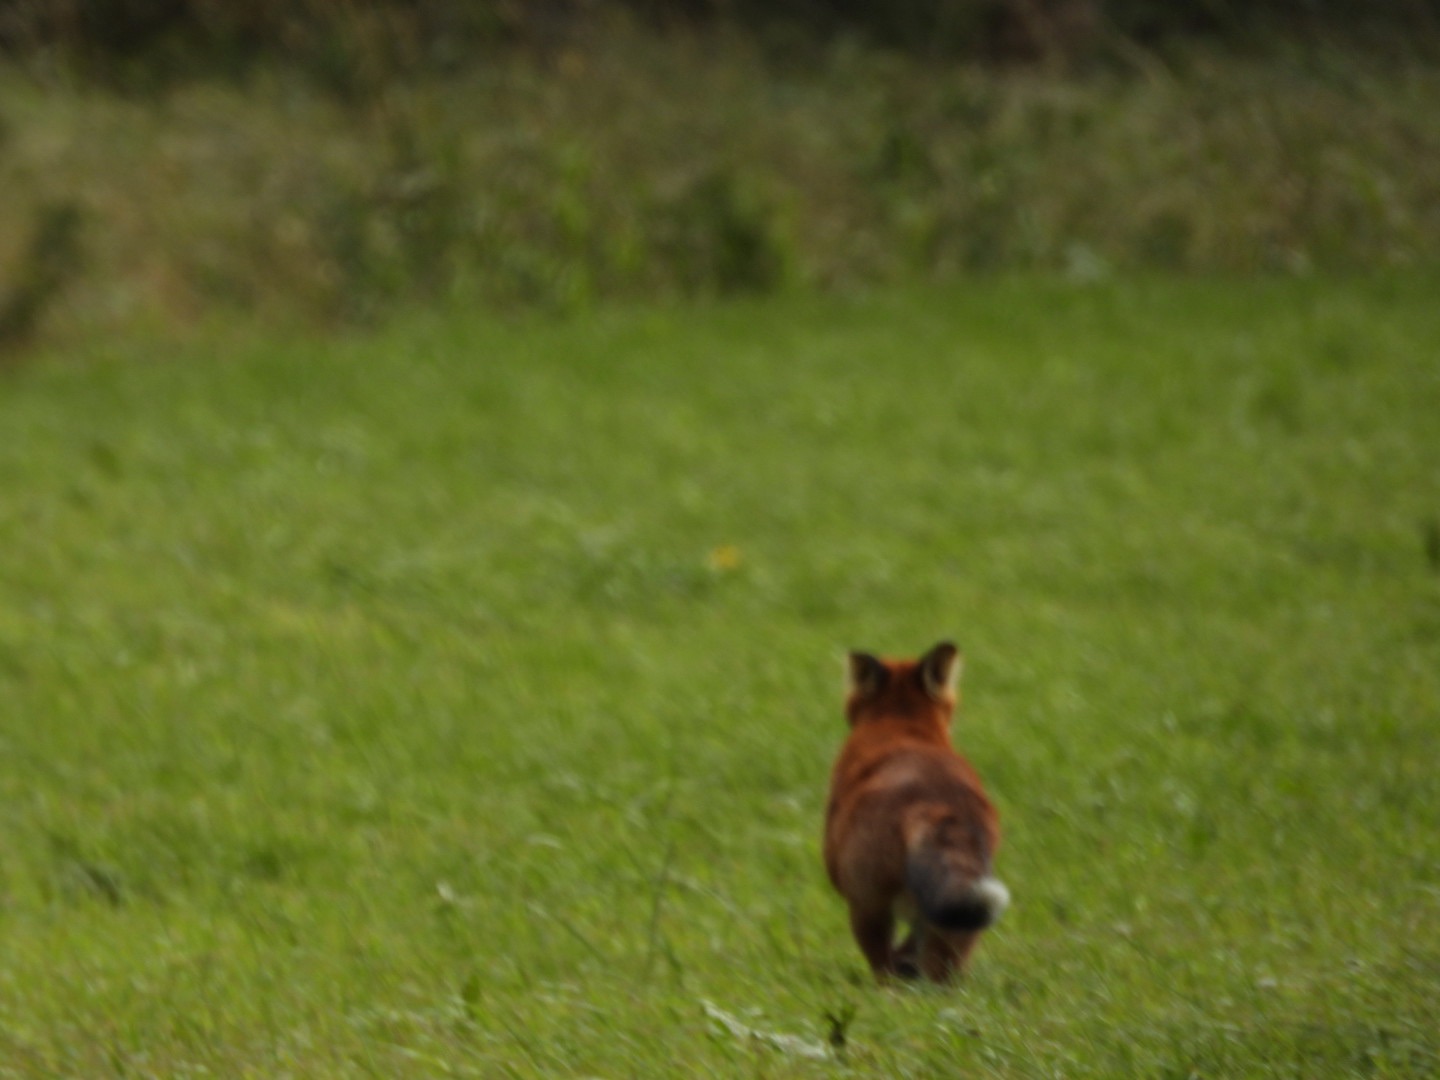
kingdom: Animalia
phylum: Chordata
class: Mammalia
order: Carnivora
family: Canidae
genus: Vulpes
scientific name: Vulpes vulpes
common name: Ræv
